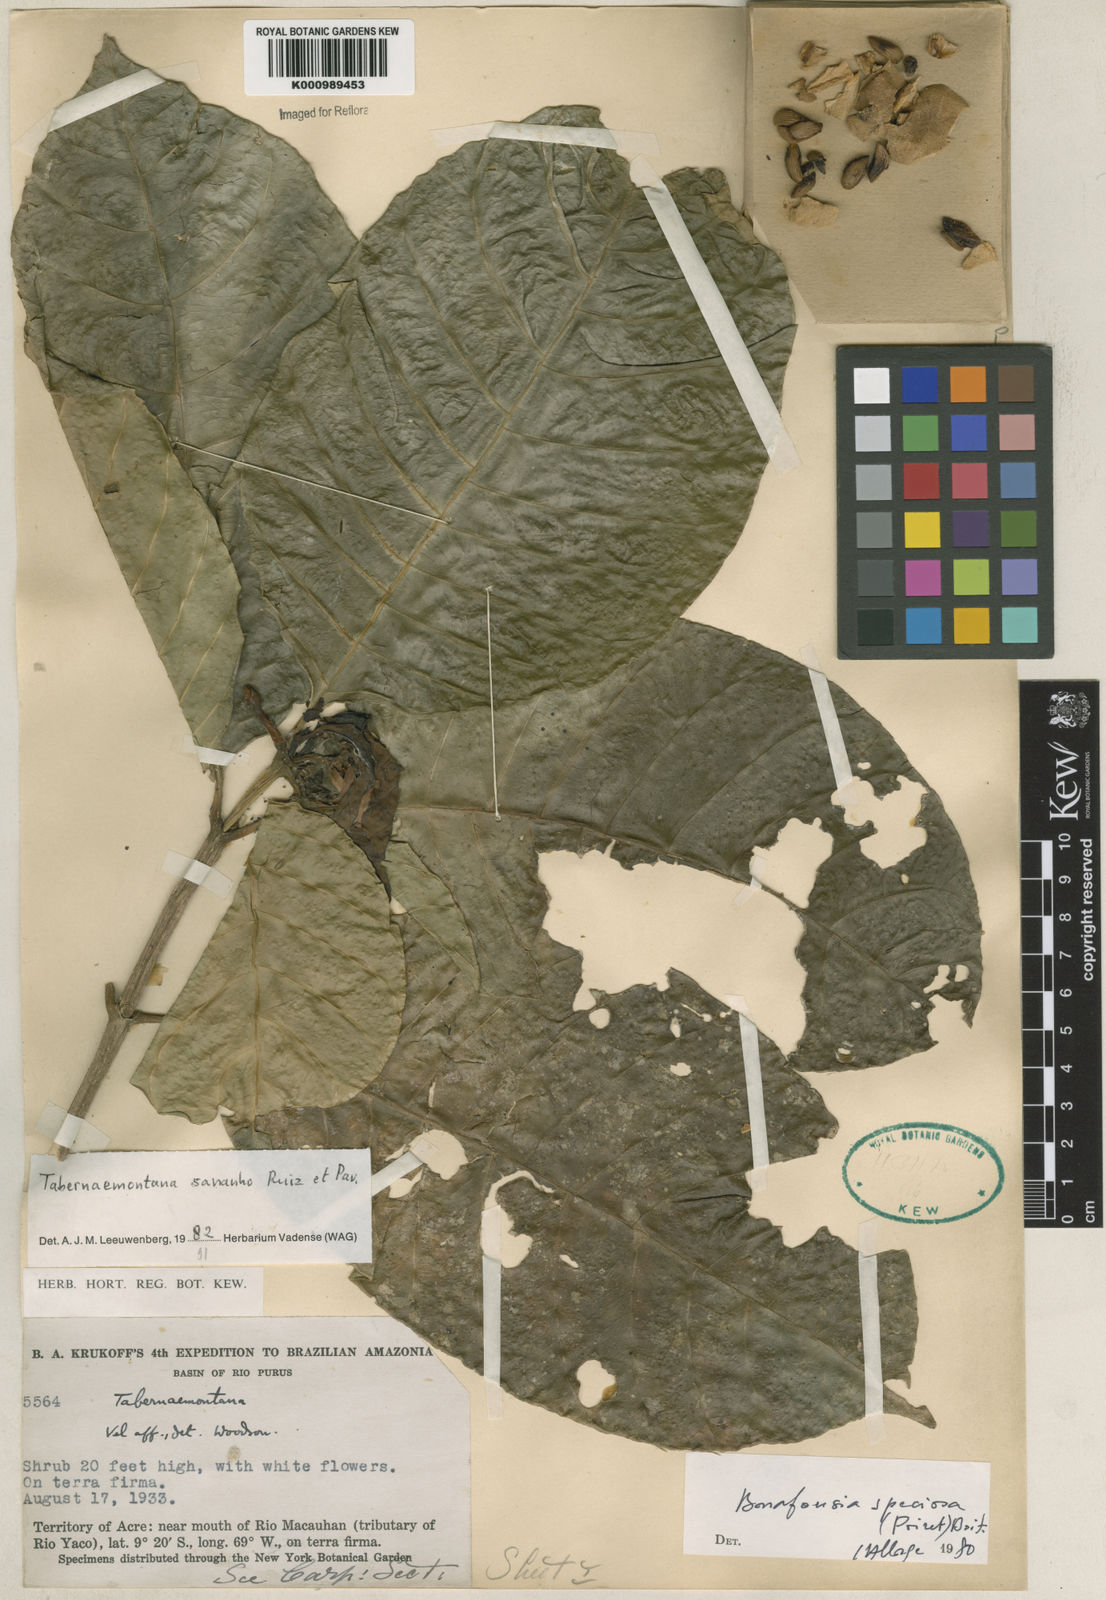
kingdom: Plantae
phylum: Tracheophyta
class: Magnoliopsida
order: Gentianales
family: Apocynaceae
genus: Tabernaemontana
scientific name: Tabernaemontana sananho
